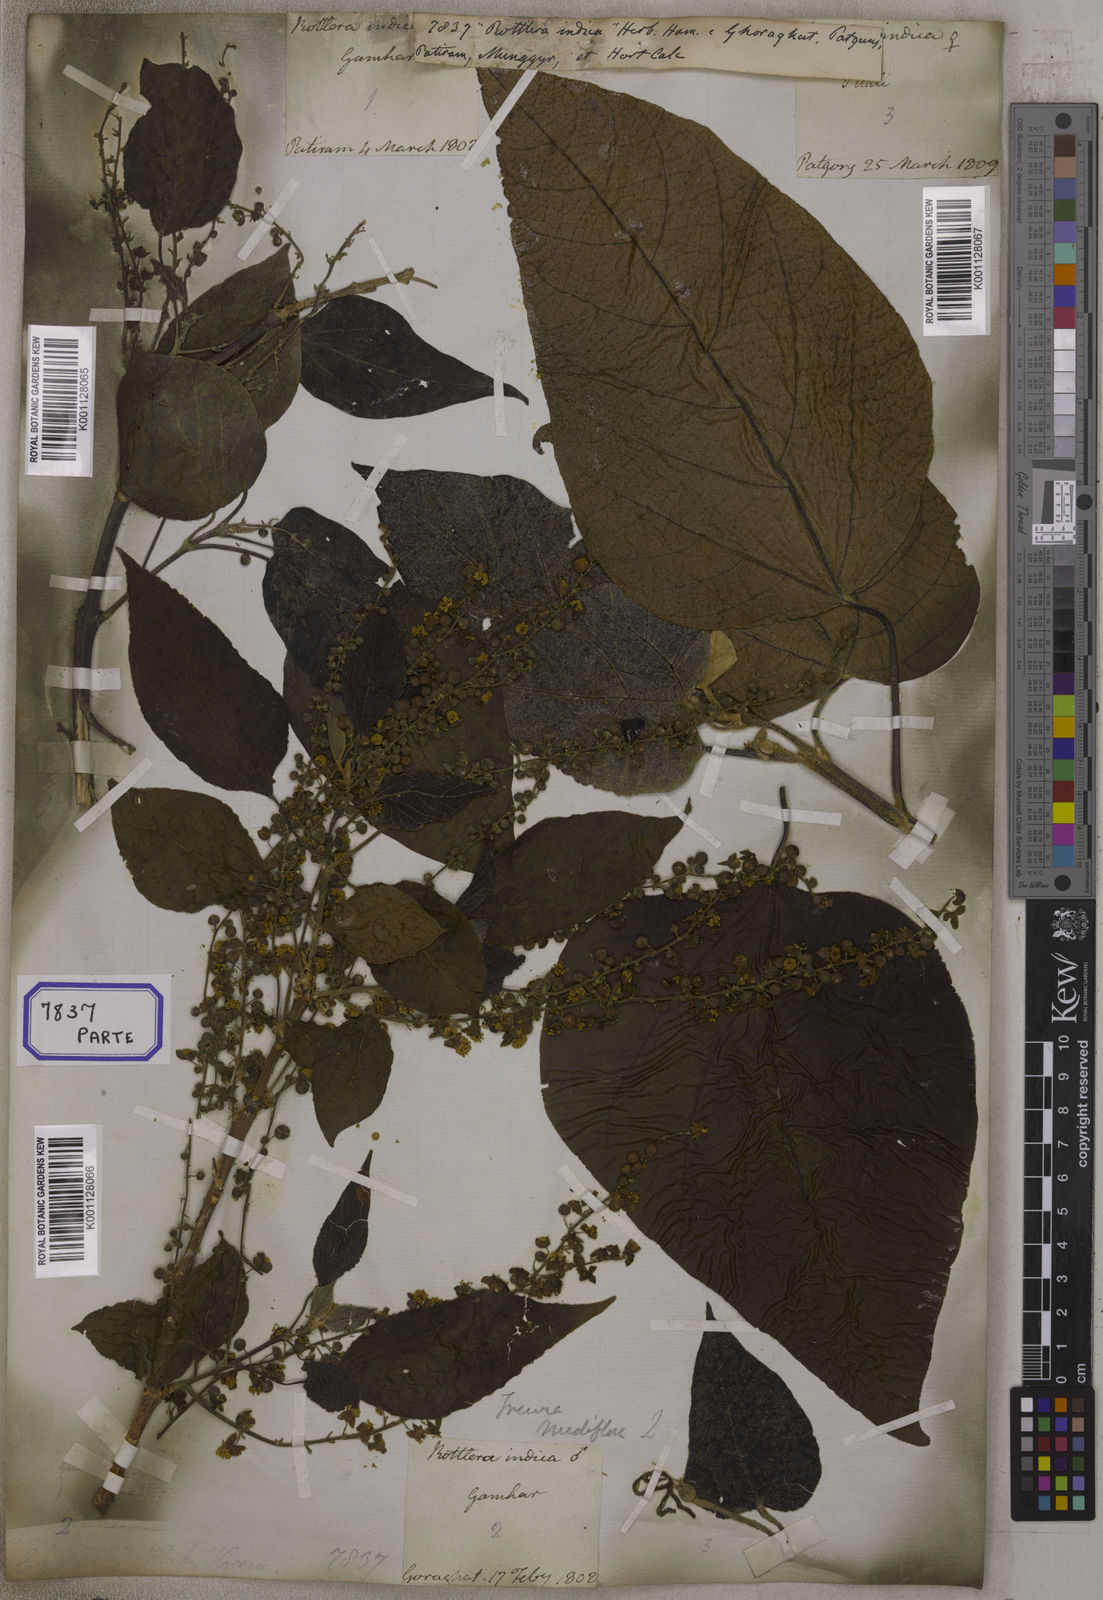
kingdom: Plantae
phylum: Tracheophyta
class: Magnoliopsida
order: Malpighiales
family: Euphorbiaceae
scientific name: Euphorbiaceae
